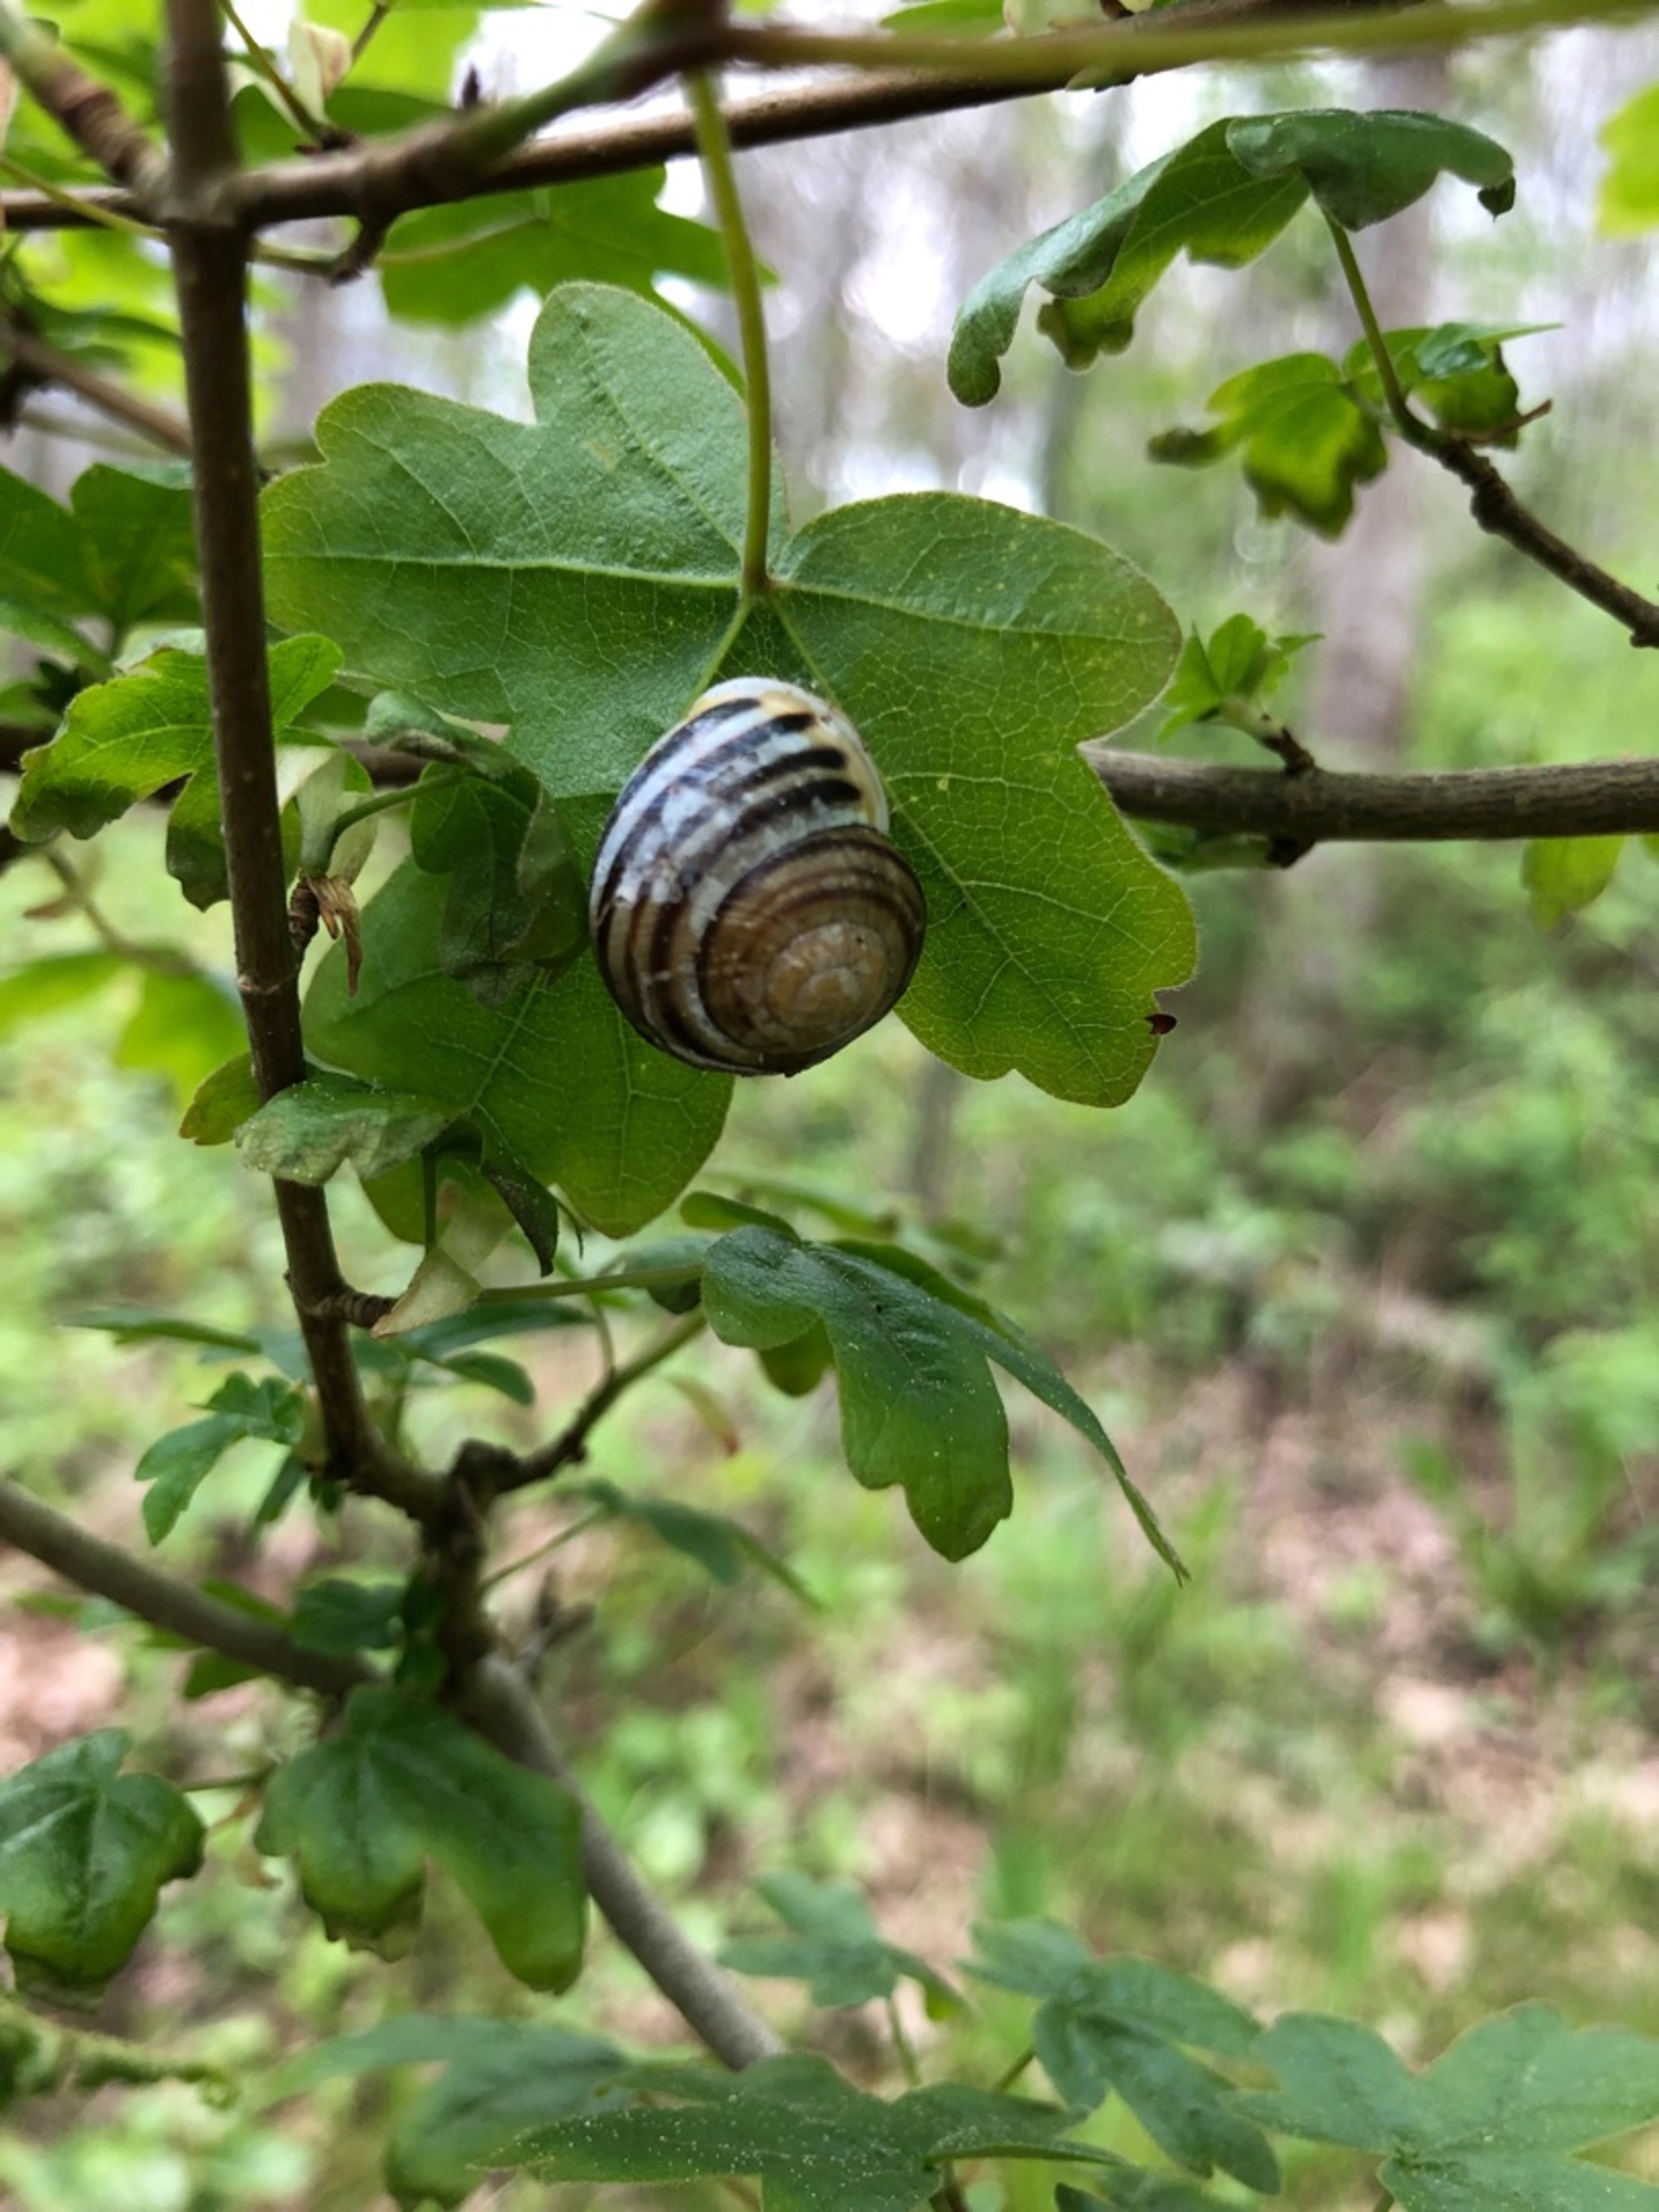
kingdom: Animalia
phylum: Mollusca
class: Gastropoda
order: Stylommatophora
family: Helicidae
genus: Cepaea
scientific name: Cepaea hortensis
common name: Havesnegl
